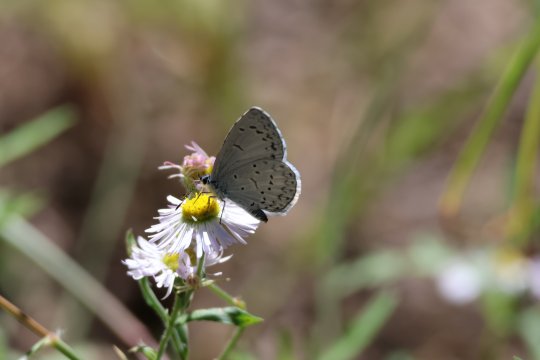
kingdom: Animalia
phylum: Arthropoda
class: Insecta
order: Lepidoptera
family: Lycaenidae
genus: Cyaniris
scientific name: Cyaniris neglecta
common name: Summer Azure
